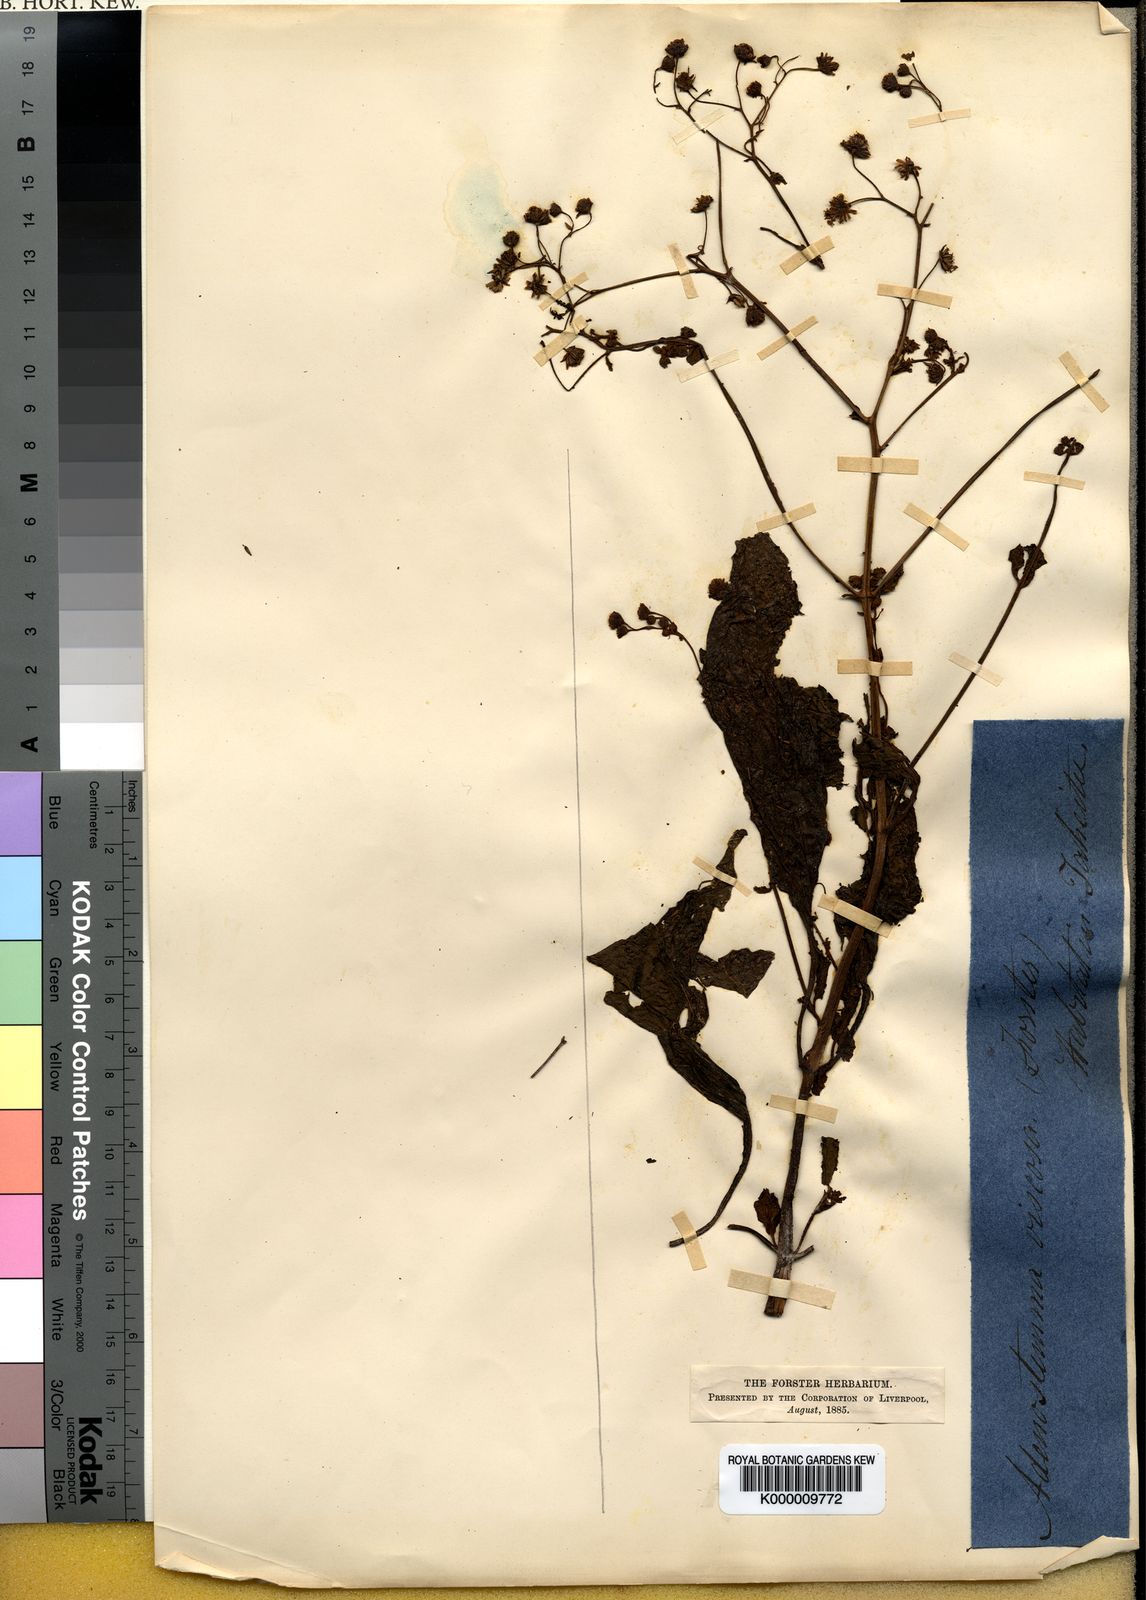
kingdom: Plantae
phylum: Tracheophyta
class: Magnoliopsida
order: Asterales
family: Asteraceae
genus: Adenostemma
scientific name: Adenostemma viscosum
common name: Dungweed
